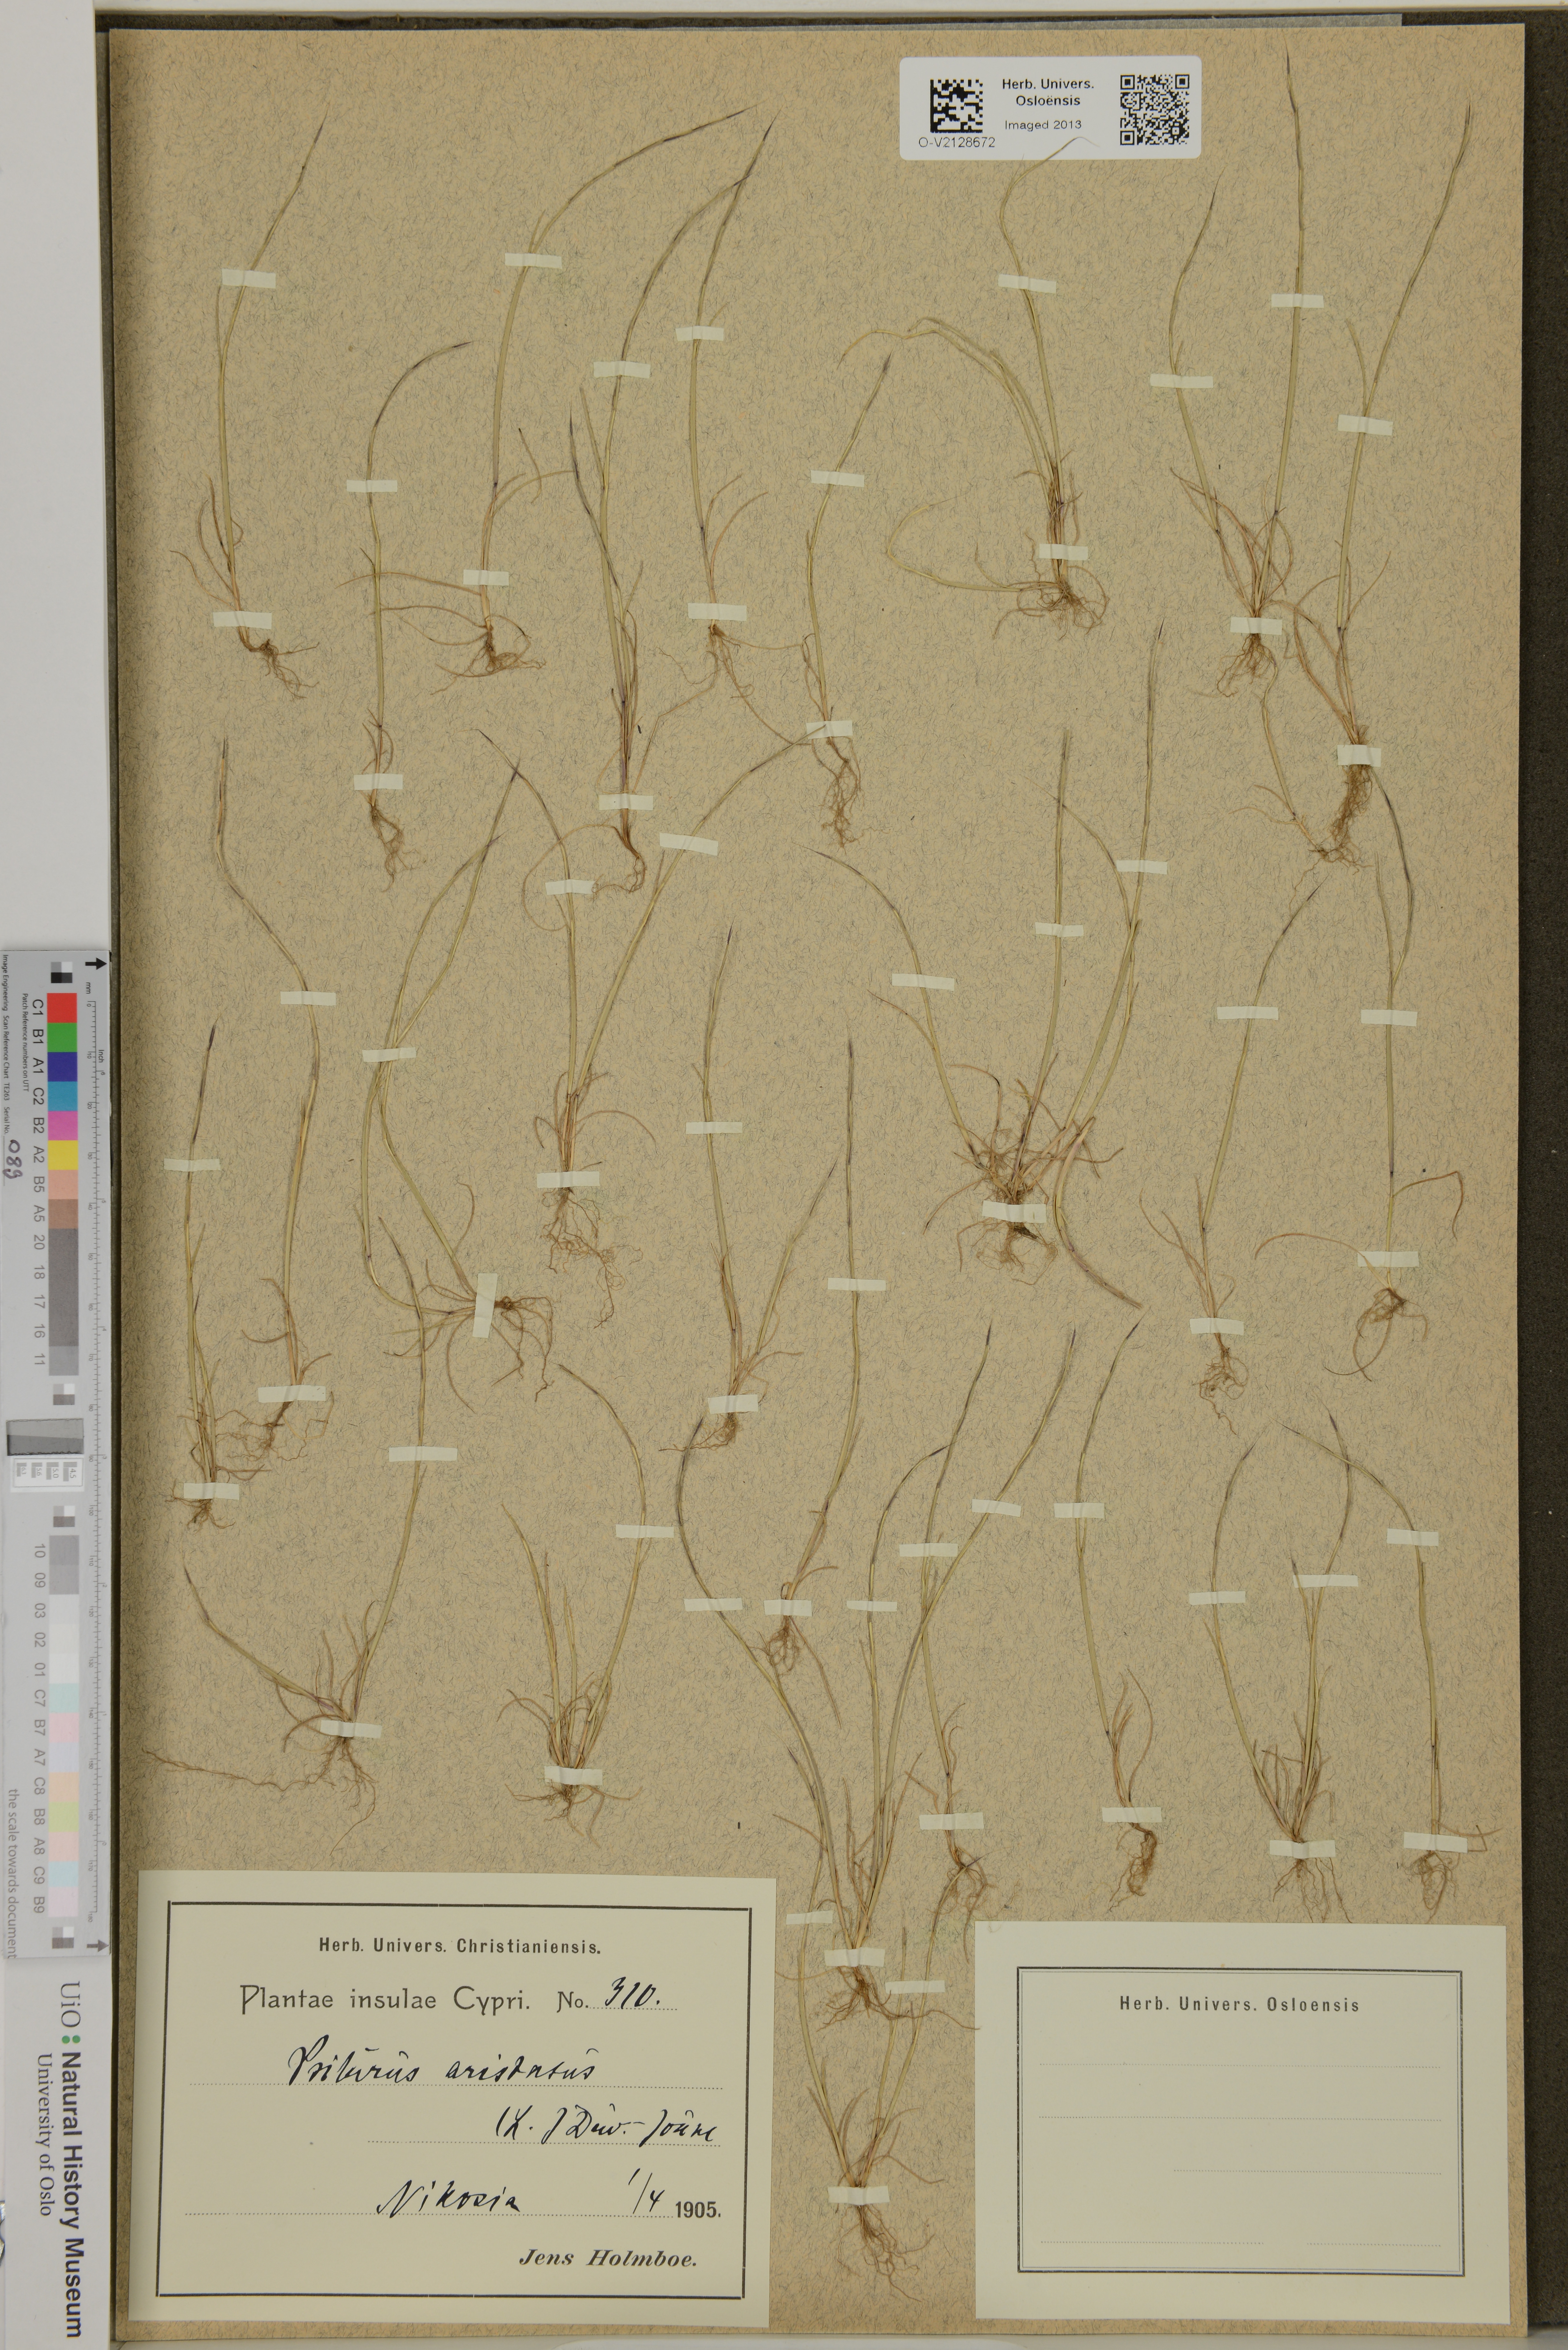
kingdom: Plantae
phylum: Tracheophyta
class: Liliopsida
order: Poales
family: Poaceae
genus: Festuca
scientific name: Festuca incurva
